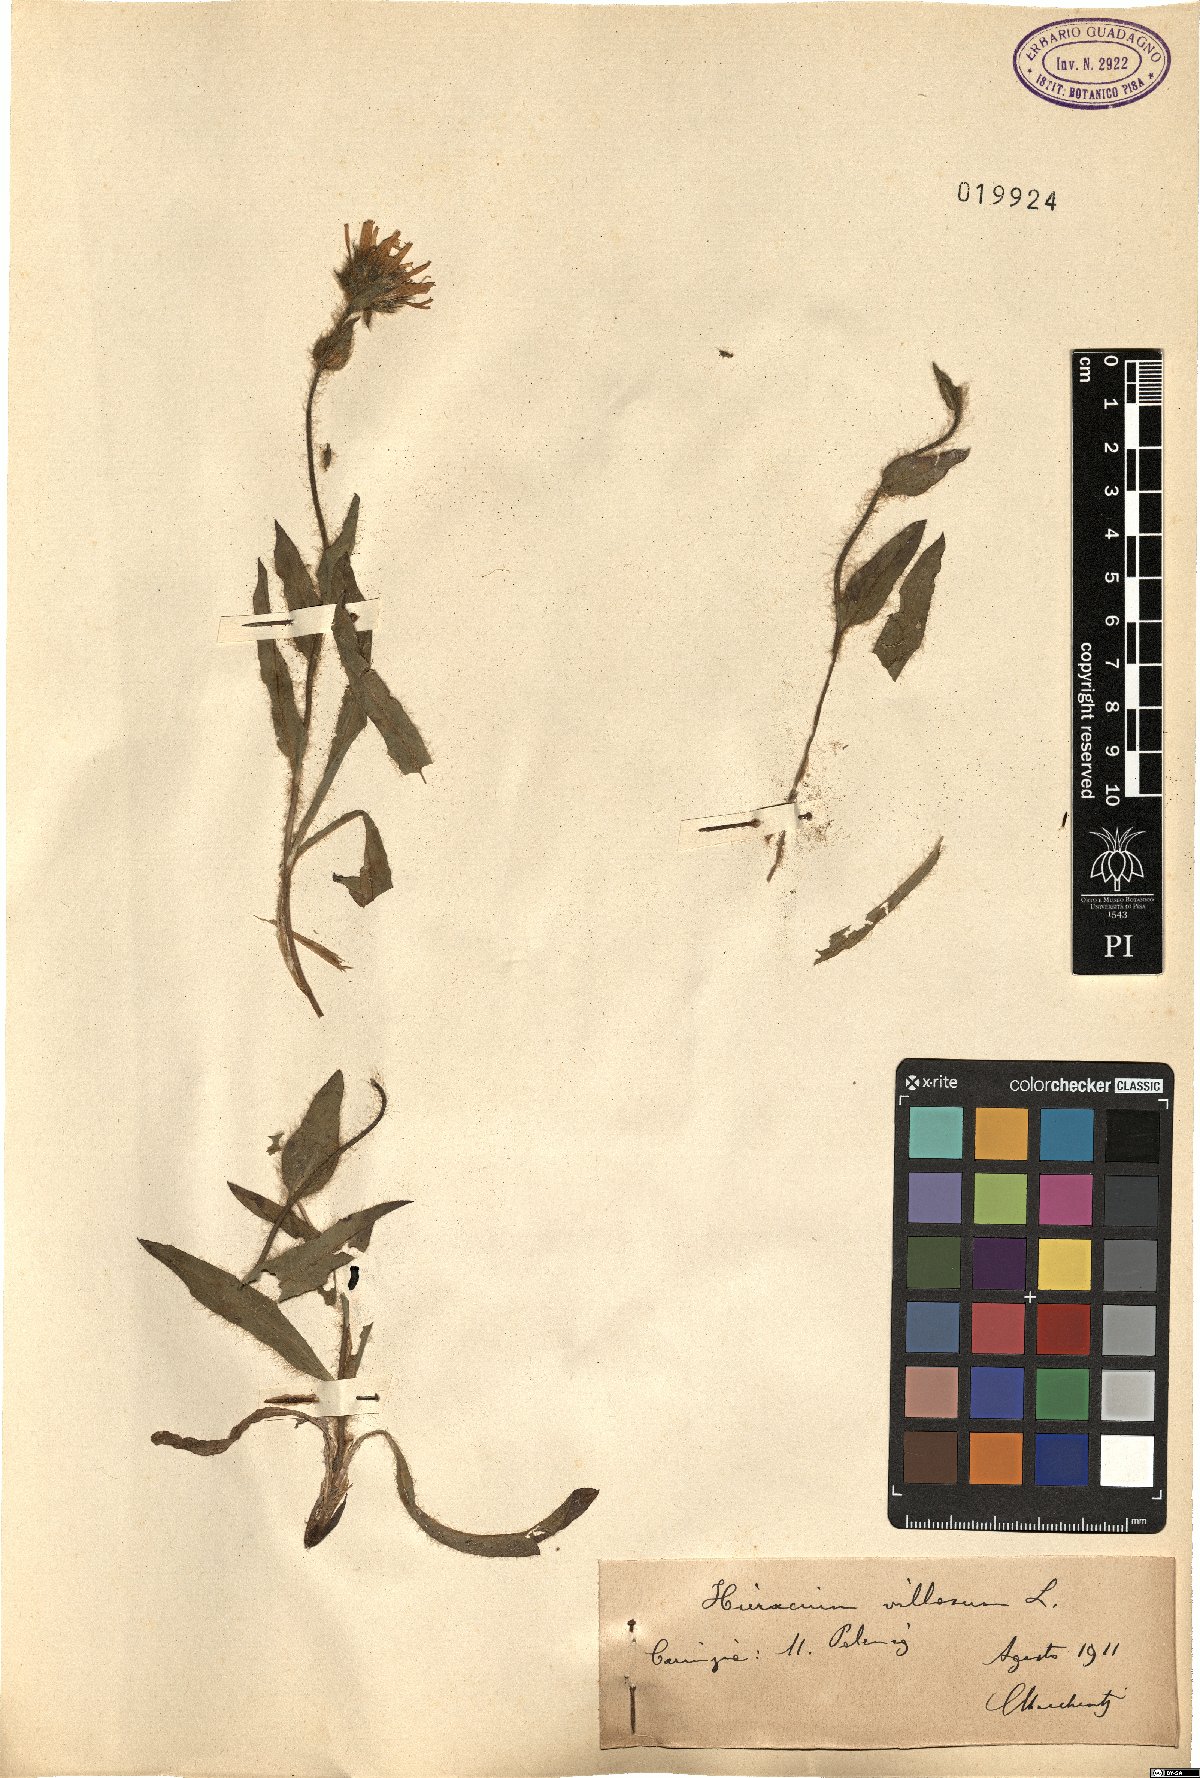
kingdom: Plantae
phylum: Tracheophyta
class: Magnoliopsida
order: Asterales
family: Asteraceae
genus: Hieracium
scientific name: Hieracium villosum
